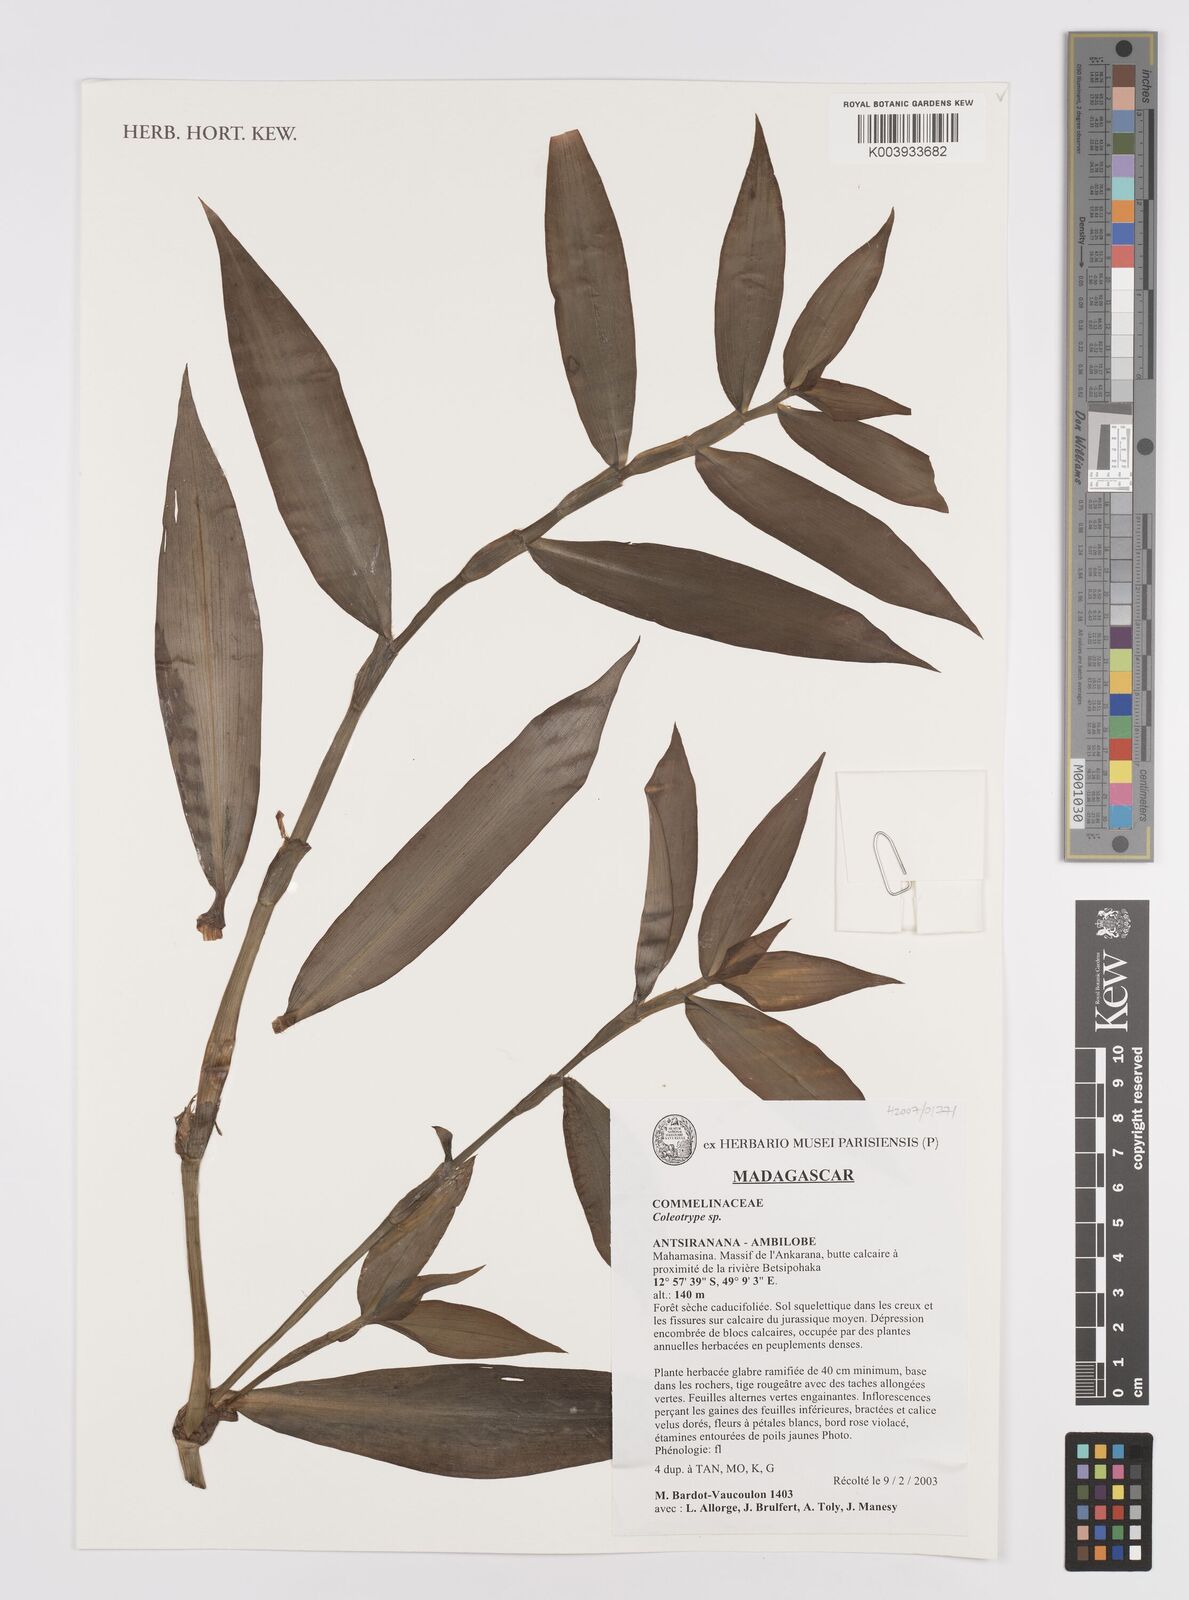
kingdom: Plantae
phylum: Tracheophyta
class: Liliopsida
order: Commelinales
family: Commelinaceae
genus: Coleotrype
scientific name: Coleotrype
